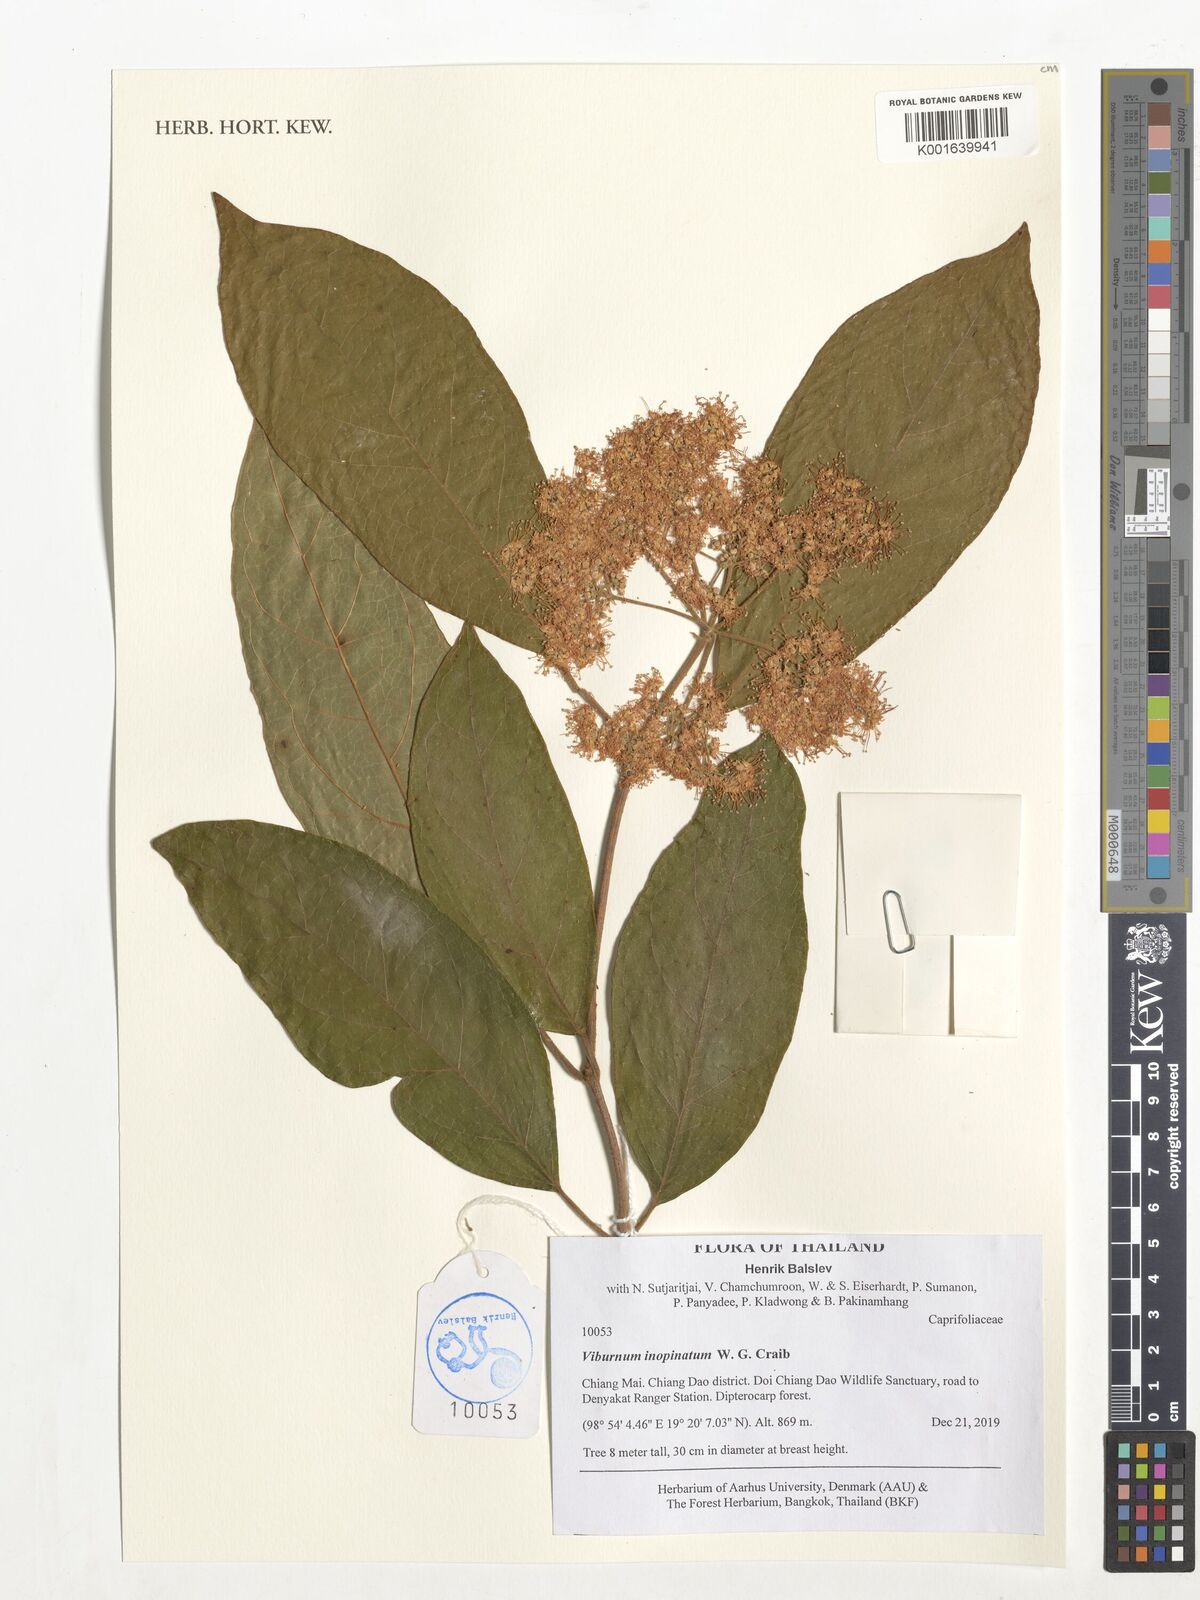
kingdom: Plantae
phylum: Tracheophyta
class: Magnoliopsida
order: Dipsacales
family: Viburnaceae
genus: Viburnum
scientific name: Viburnum inopinatum
